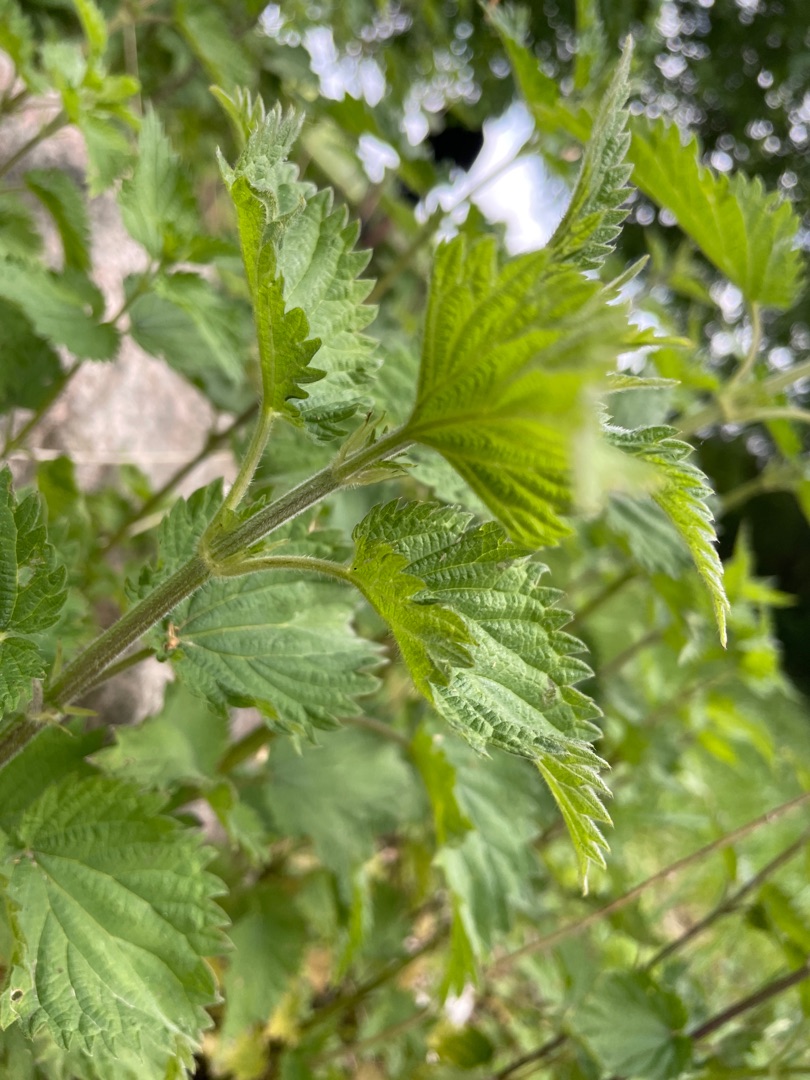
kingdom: Plantae
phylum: Tracheophyta
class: Magnoliopsida
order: Rosales
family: Urticaceae
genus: Urtica
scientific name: Urtica dioica
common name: Stor nælde
